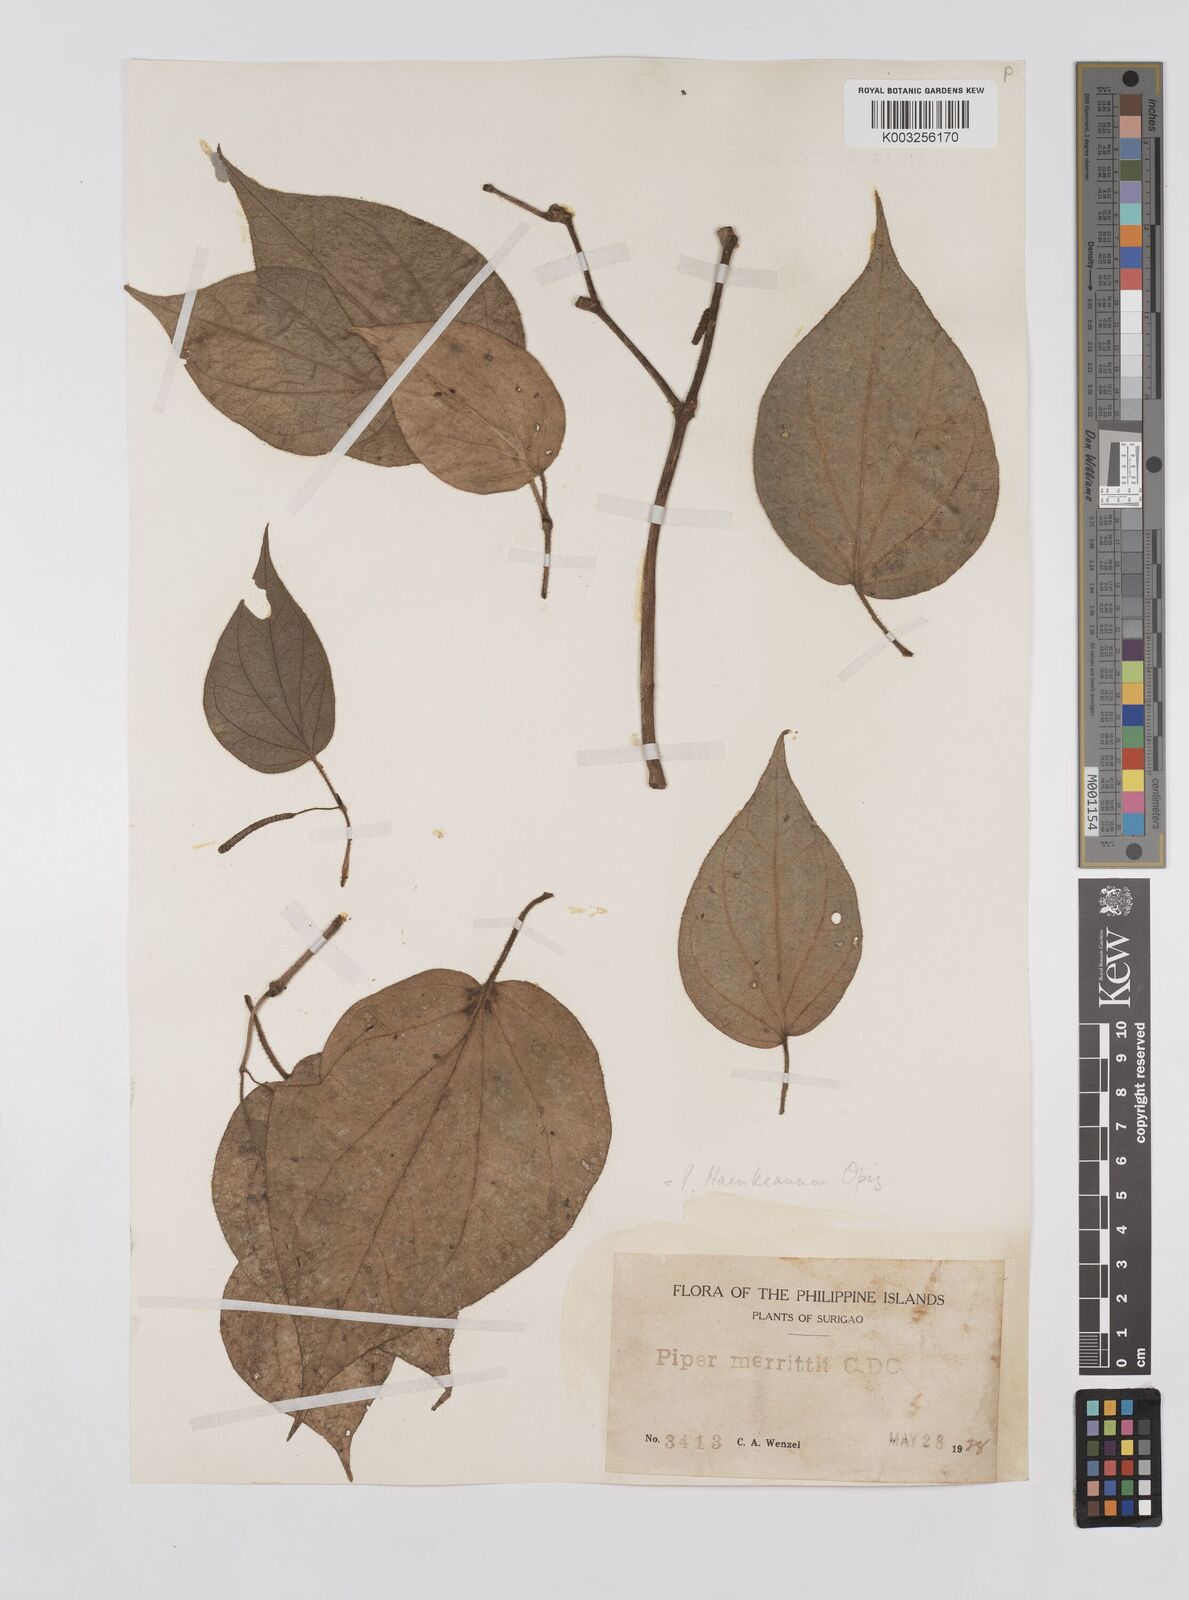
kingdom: Plantae
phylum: Tracheophyta
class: Magnoliopsida
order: Piperales
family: Piperaceae
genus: Piper
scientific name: Piper lanatum
